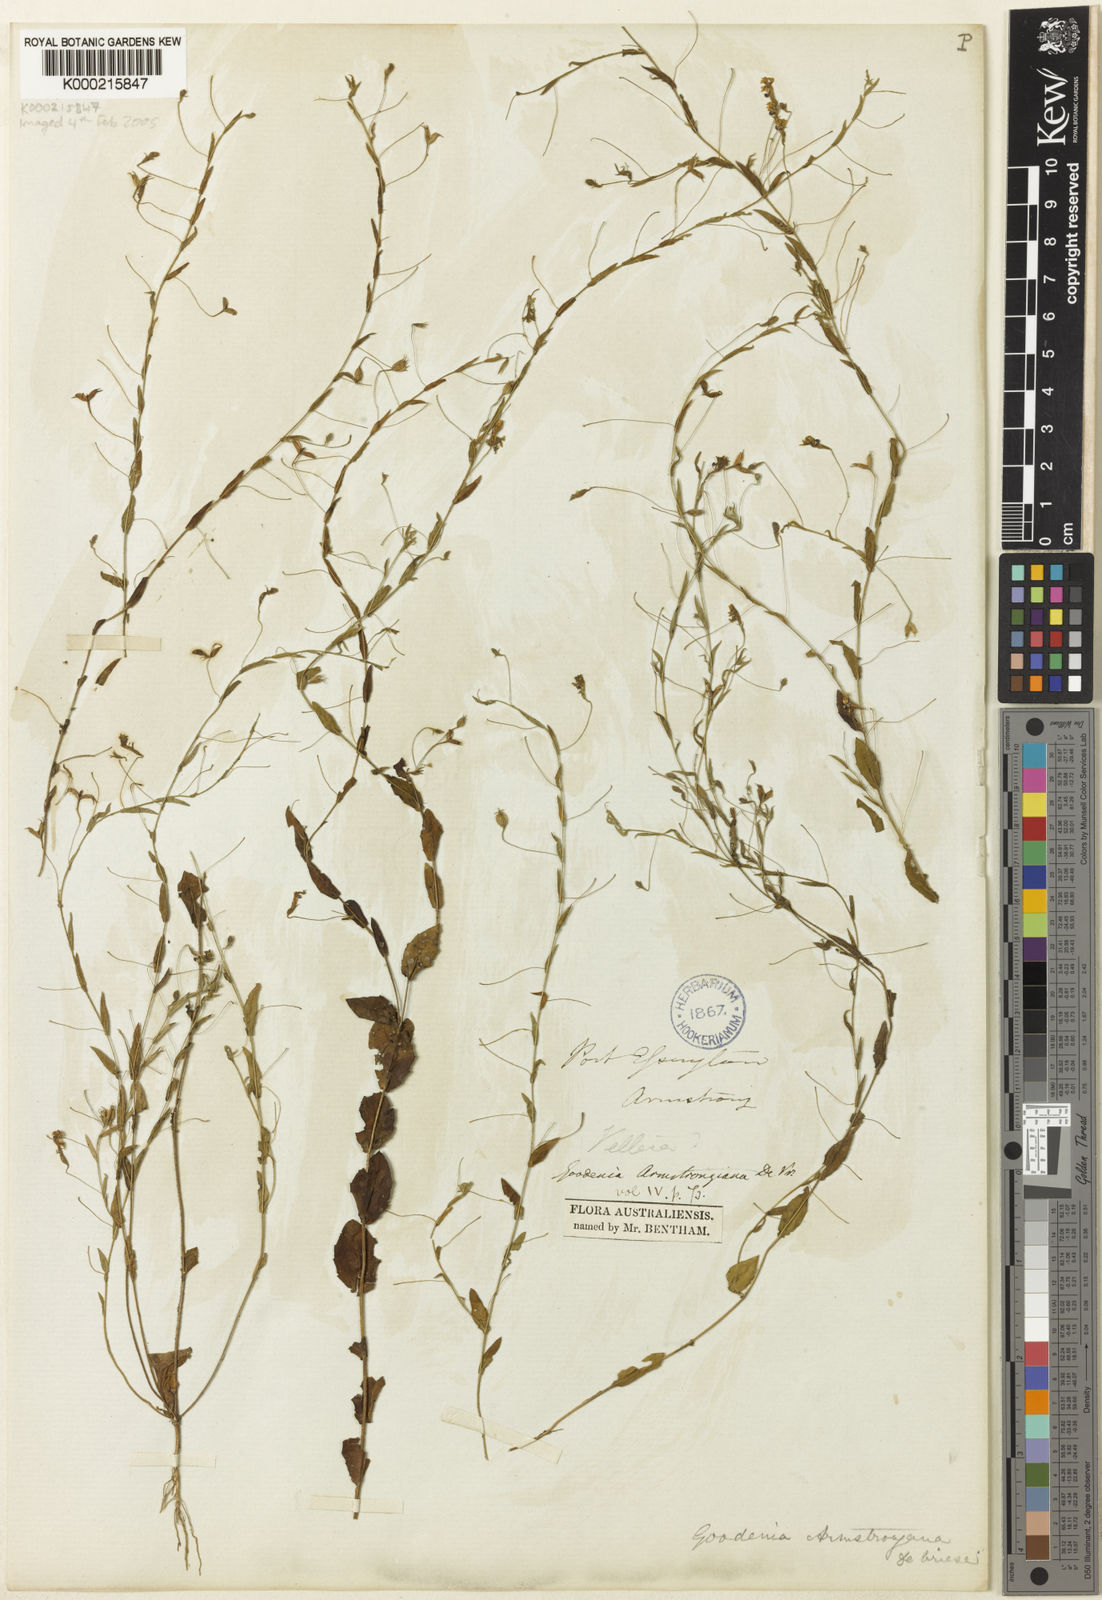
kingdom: Plantae
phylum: Tracheophyta
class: Magnoliopsida
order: Asterales
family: Goodeniaceae
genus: Goodenia
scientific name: Goodenia armstrongiana
